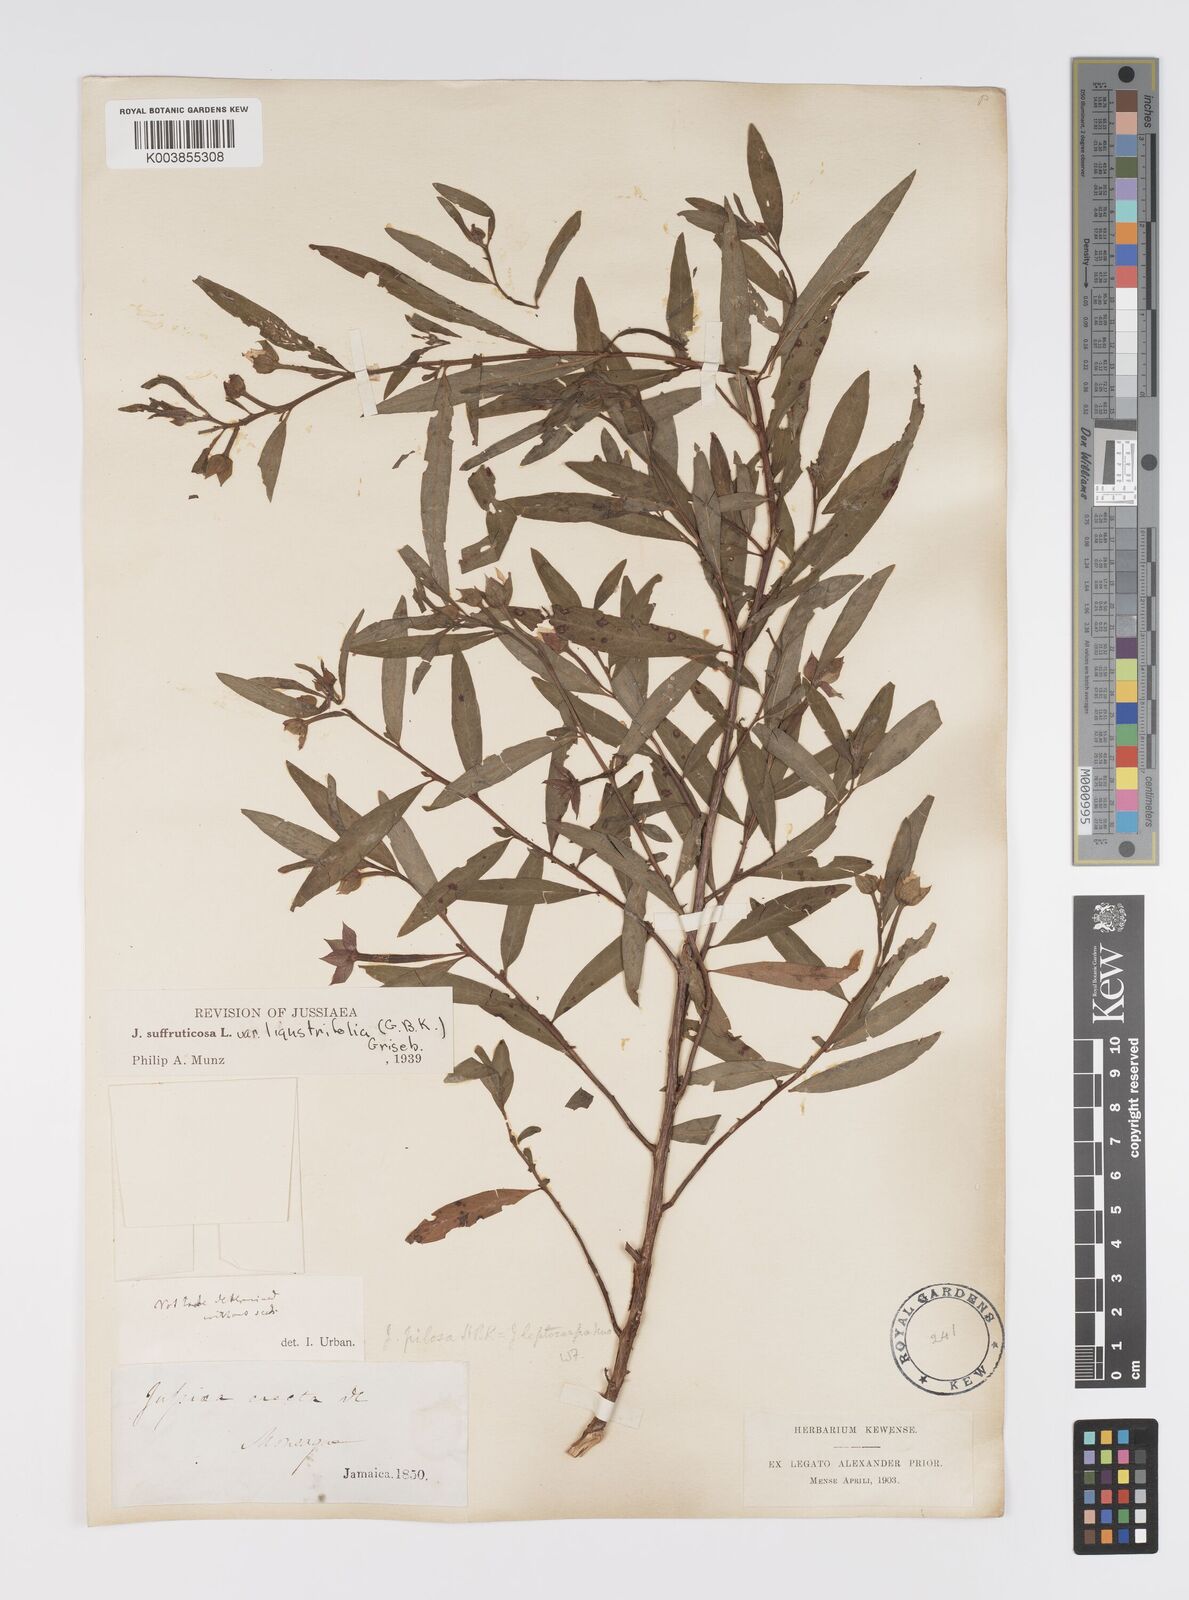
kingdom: Plantae
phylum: Tracheophyta
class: Magnoliopsida
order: Myrtales
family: Onagraceae
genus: Ludwigia
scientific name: Ludwigia
